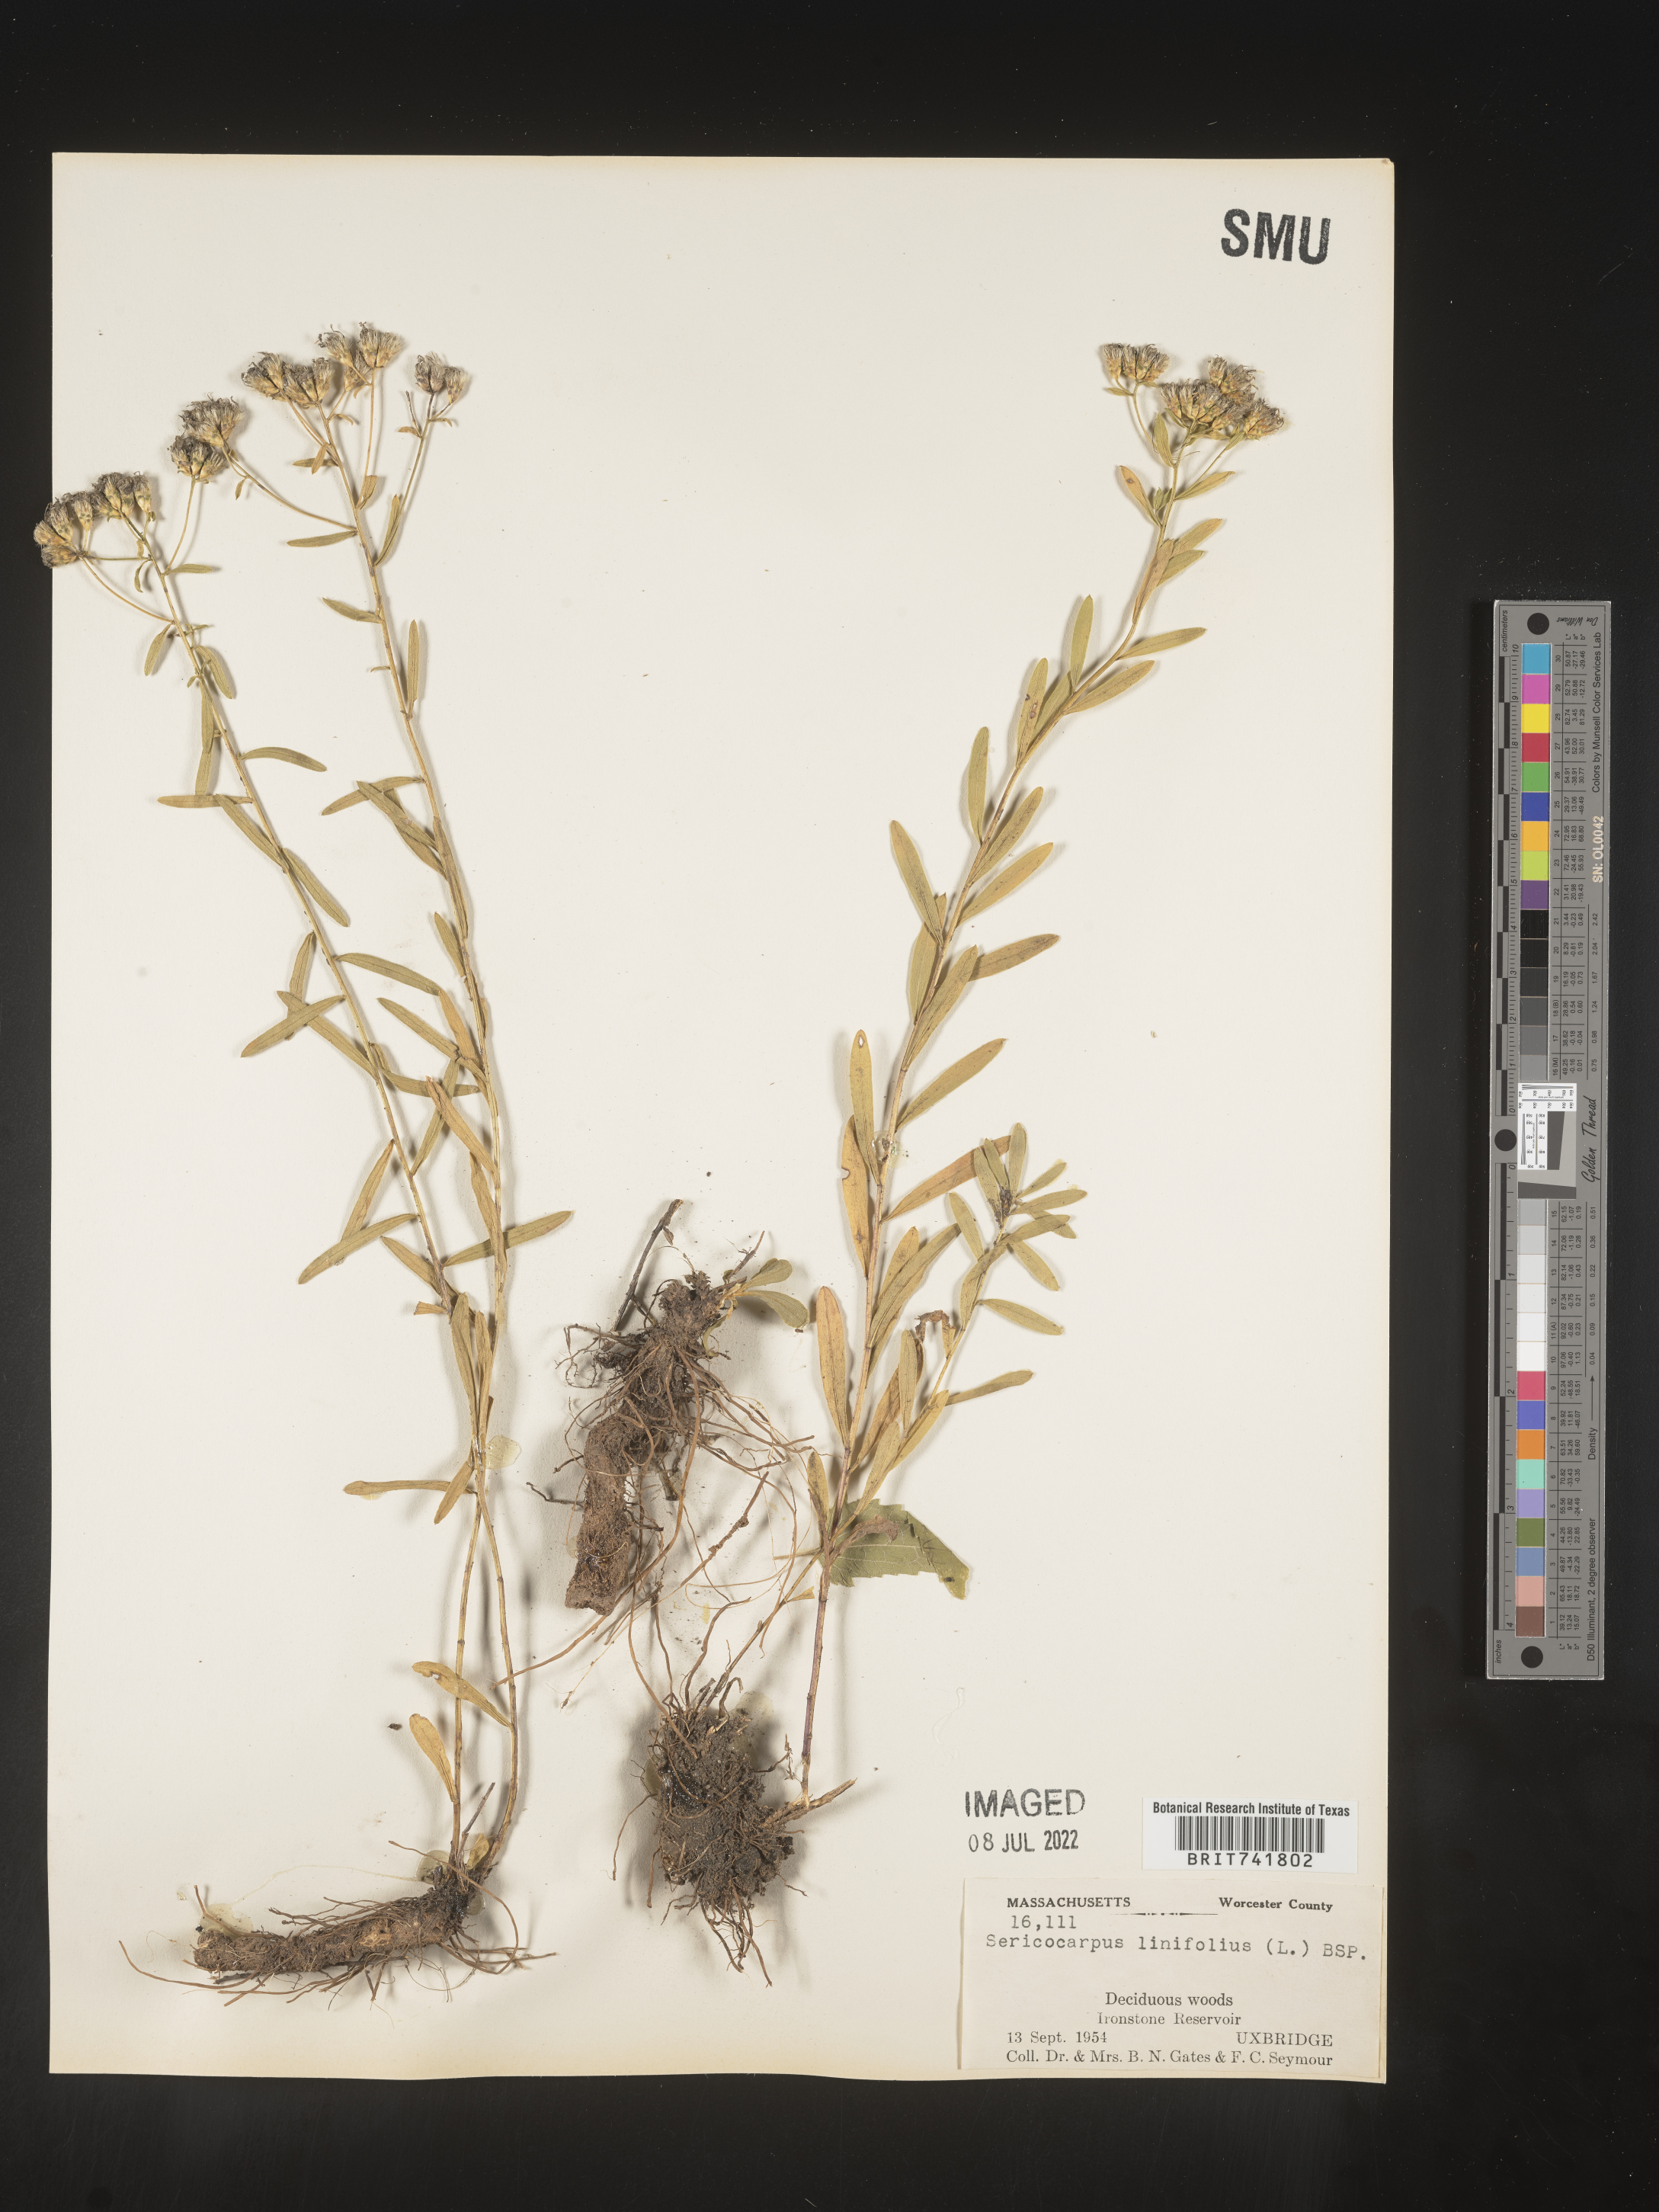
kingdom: Plantae
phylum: Tracheophyta
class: Magnoliopsida
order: Asterales
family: Asteraceae
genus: Sericocarpus
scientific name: Sericocarpus linifolius
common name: Narrow-leaf aster
